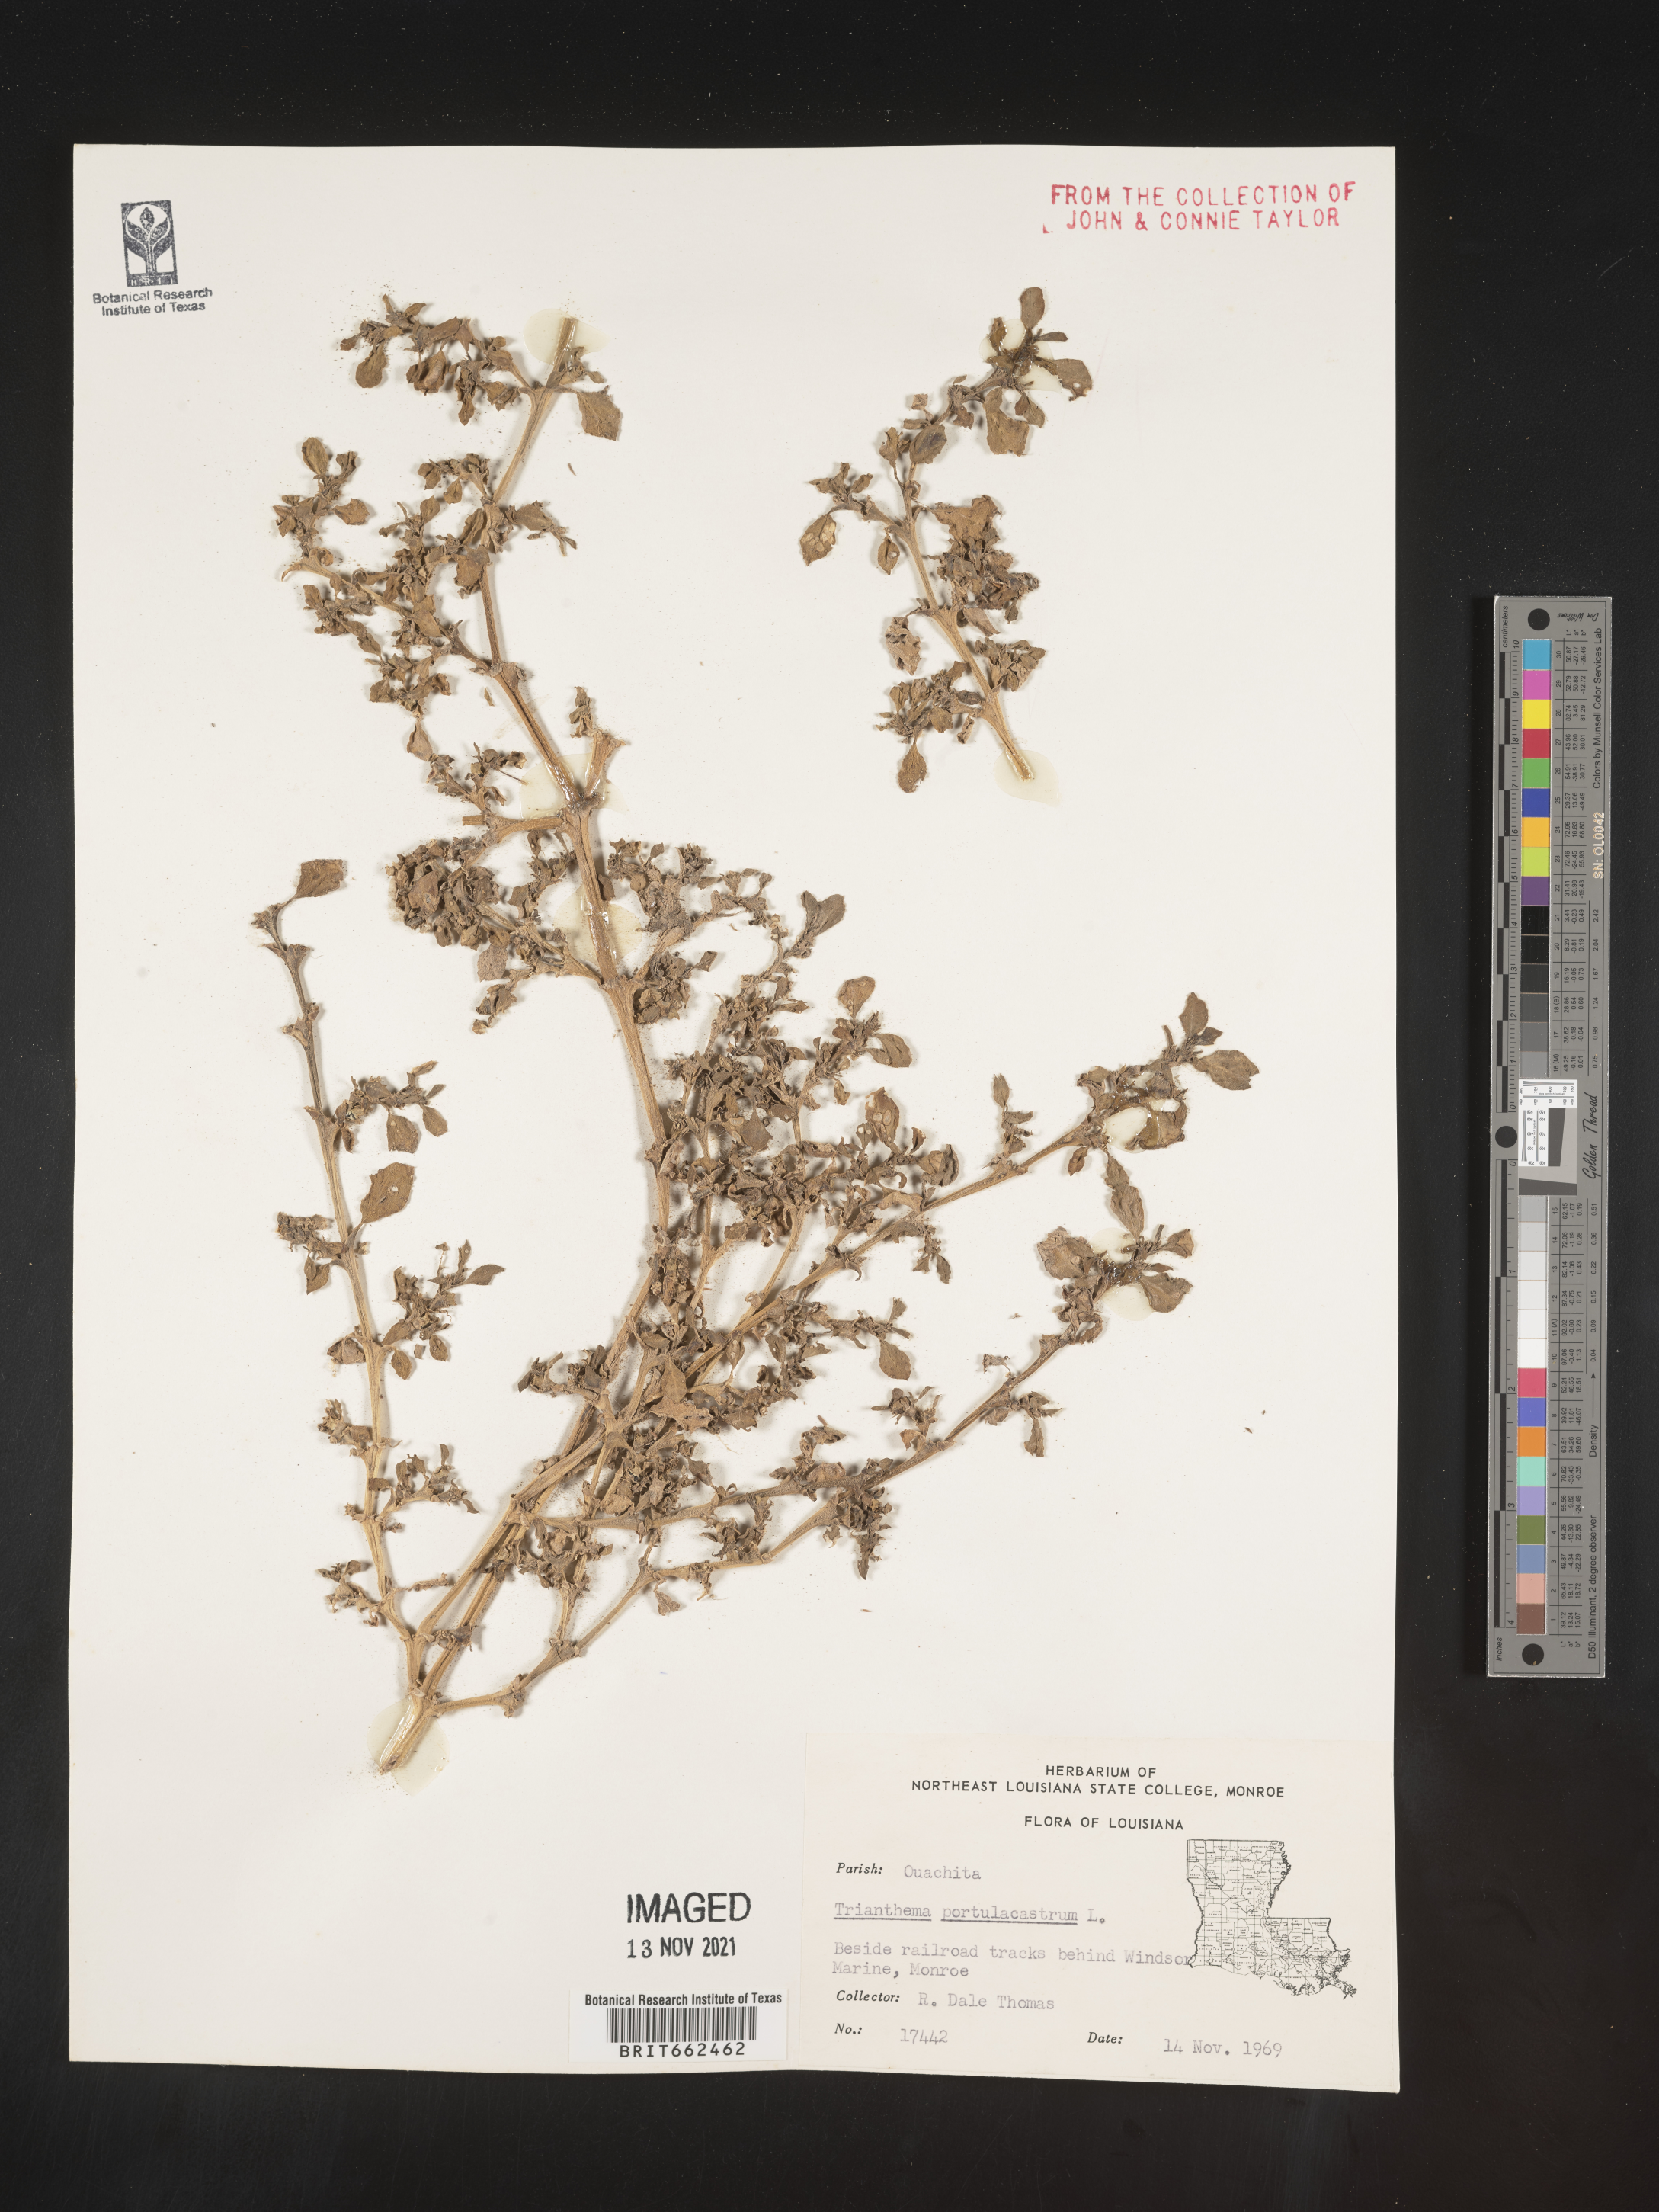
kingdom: Plantae
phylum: Tracheophyta
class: Magnoliopsida
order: Caryophyllales
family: Aizoaceae
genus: Trianthema
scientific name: Trianthema
